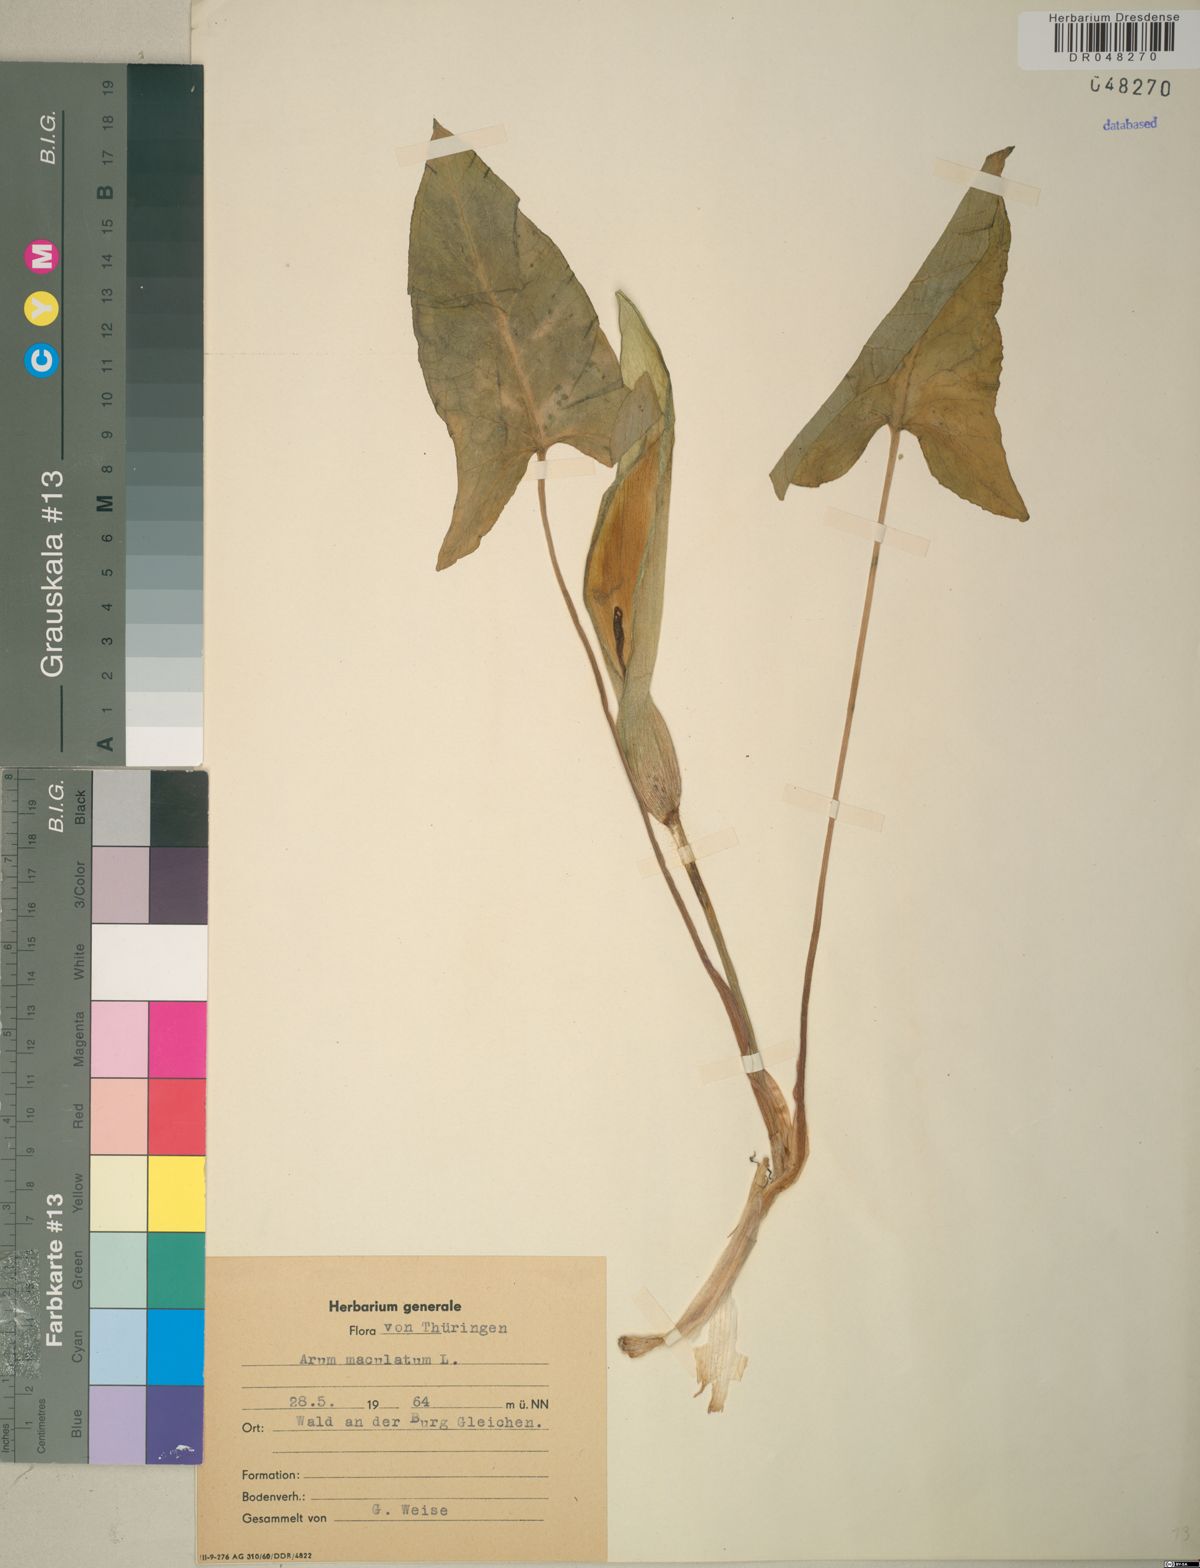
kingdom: Plantae
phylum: Tracheophyta
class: Liliopsida
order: Alismatales
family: Araceae
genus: Arum
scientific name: Arum maculatum
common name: Lords-and-ladies
